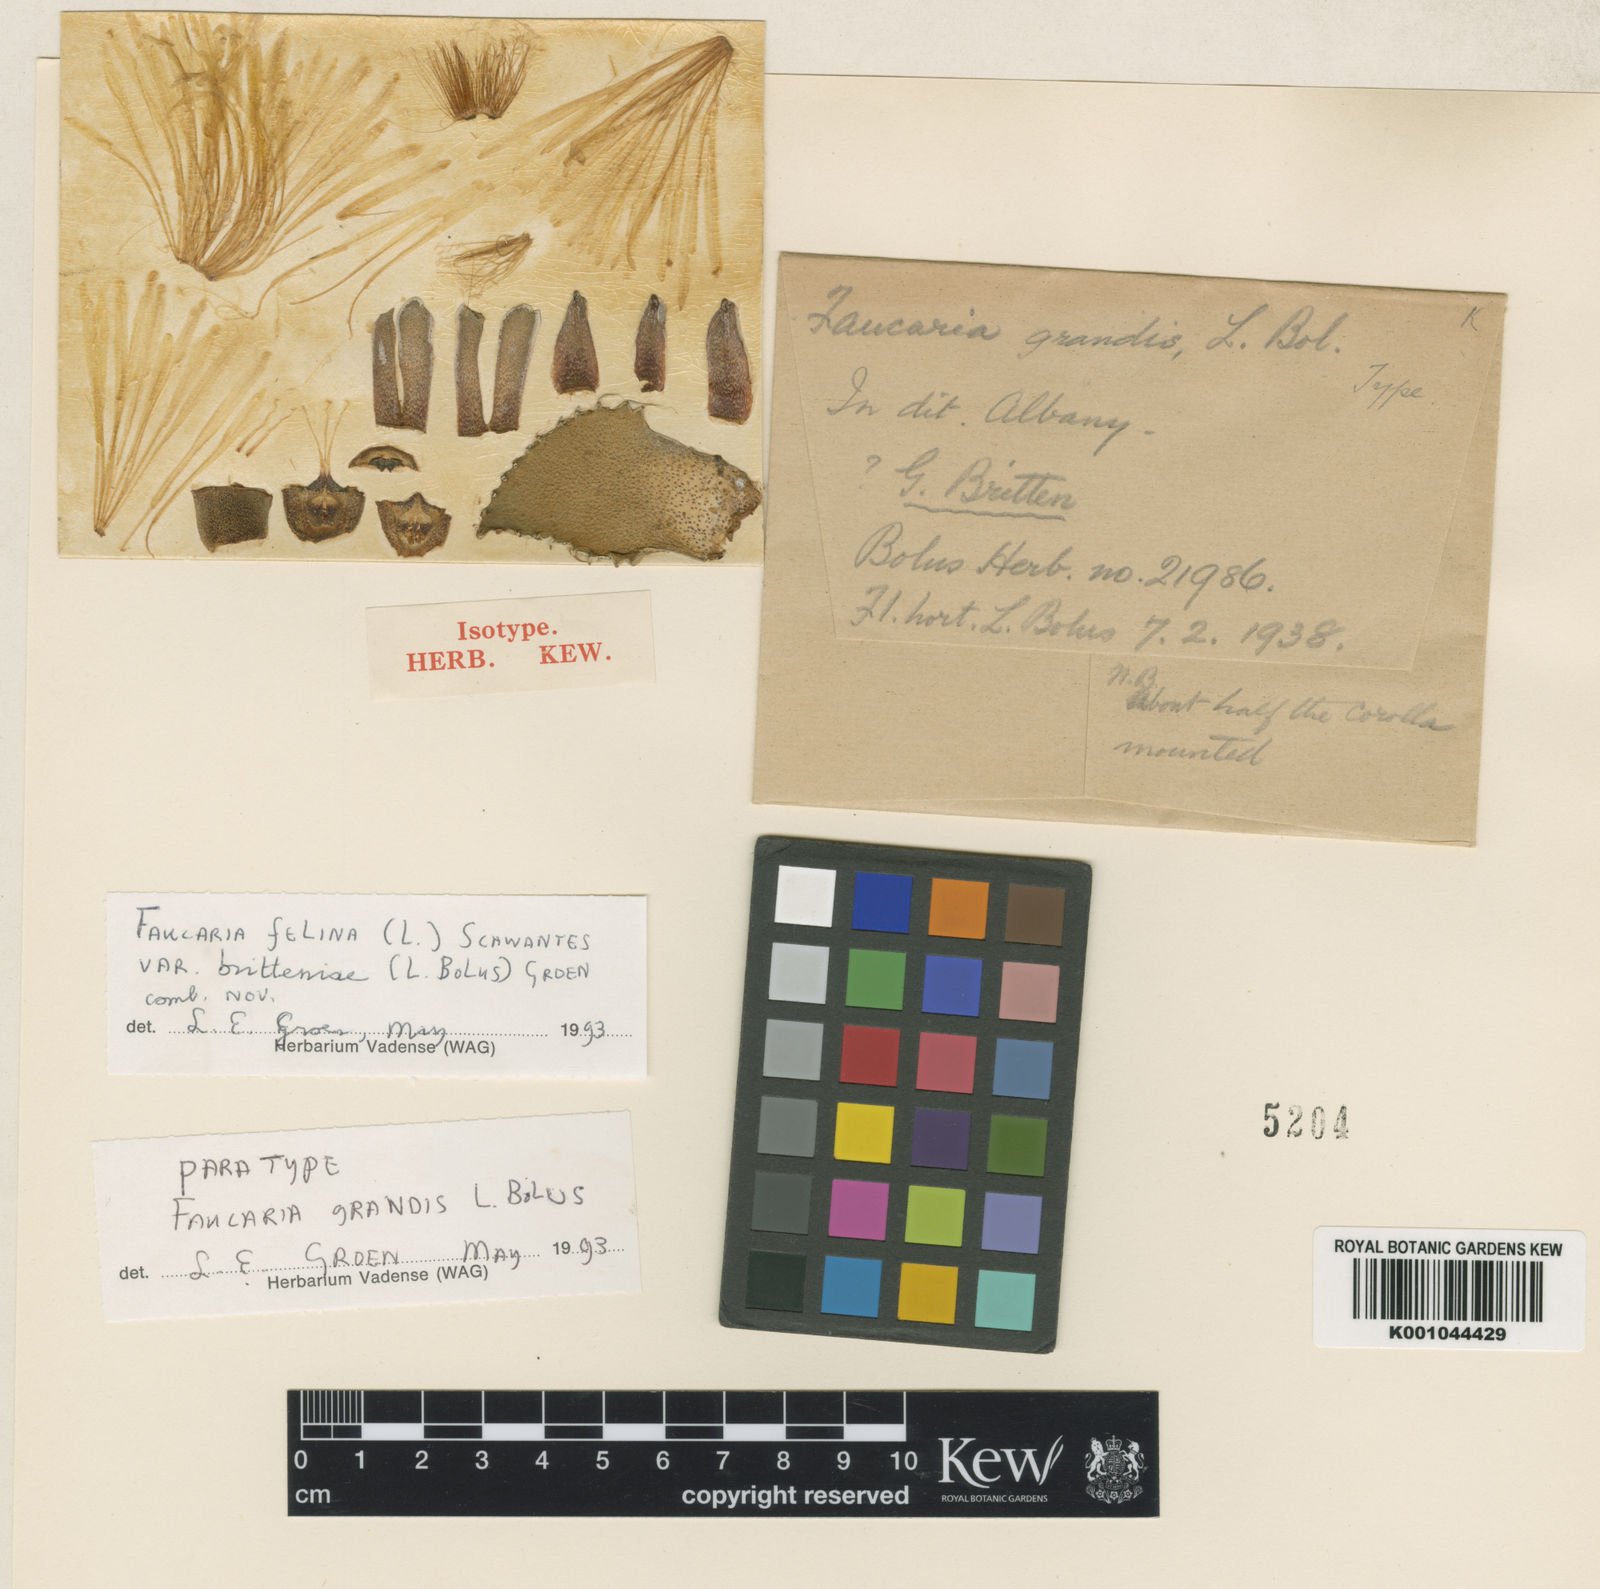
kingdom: Plantae
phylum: Tracheophyta
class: Magnoliopsida
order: Caryophyllales
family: Aizoaceae
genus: Faucaria
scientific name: Faucaria britteniae
